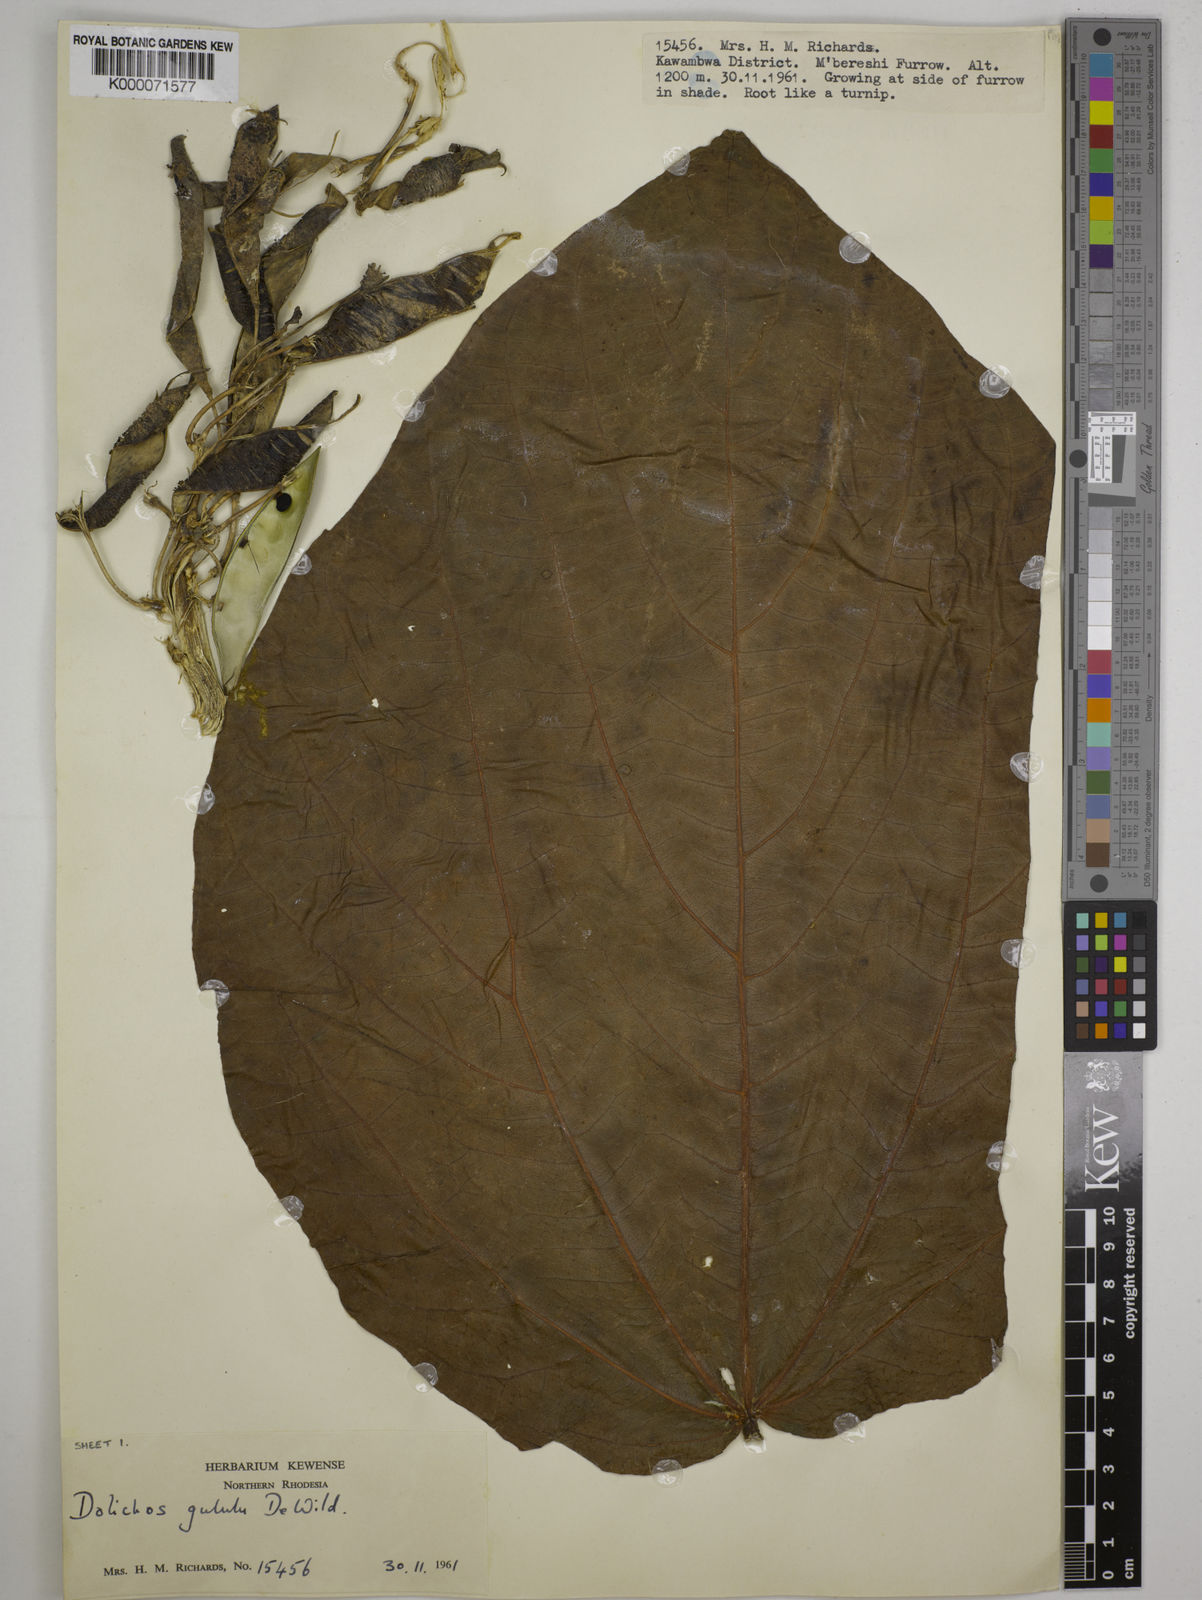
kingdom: Plantae
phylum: Tracheophyta
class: Magnoliopsida
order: Fabales
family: Fabaceae
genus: Dolichos
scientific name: Dolichos gululu
